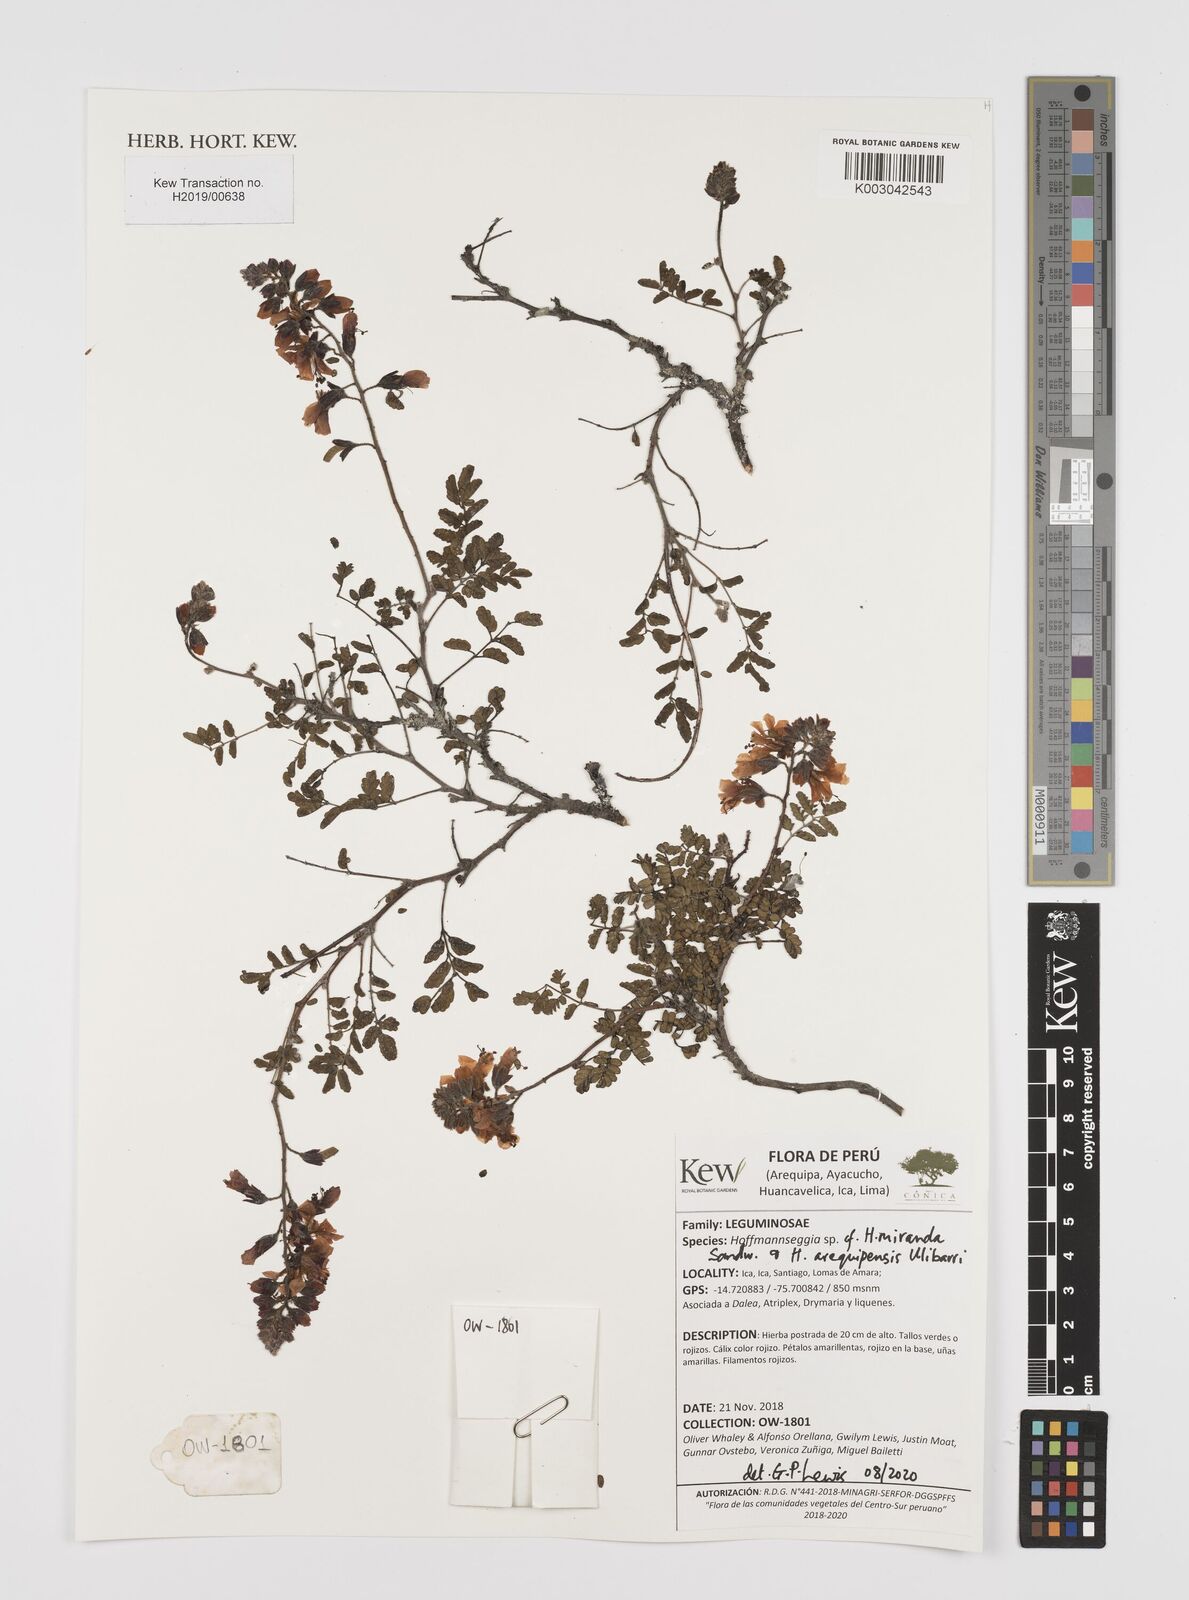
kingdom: Plantae
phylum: Tracheophyta
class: Magnoliopsida
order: Fabales
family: Fabaceae
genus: Hoffmannseggia
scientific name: Hoffmannseggia miranda
